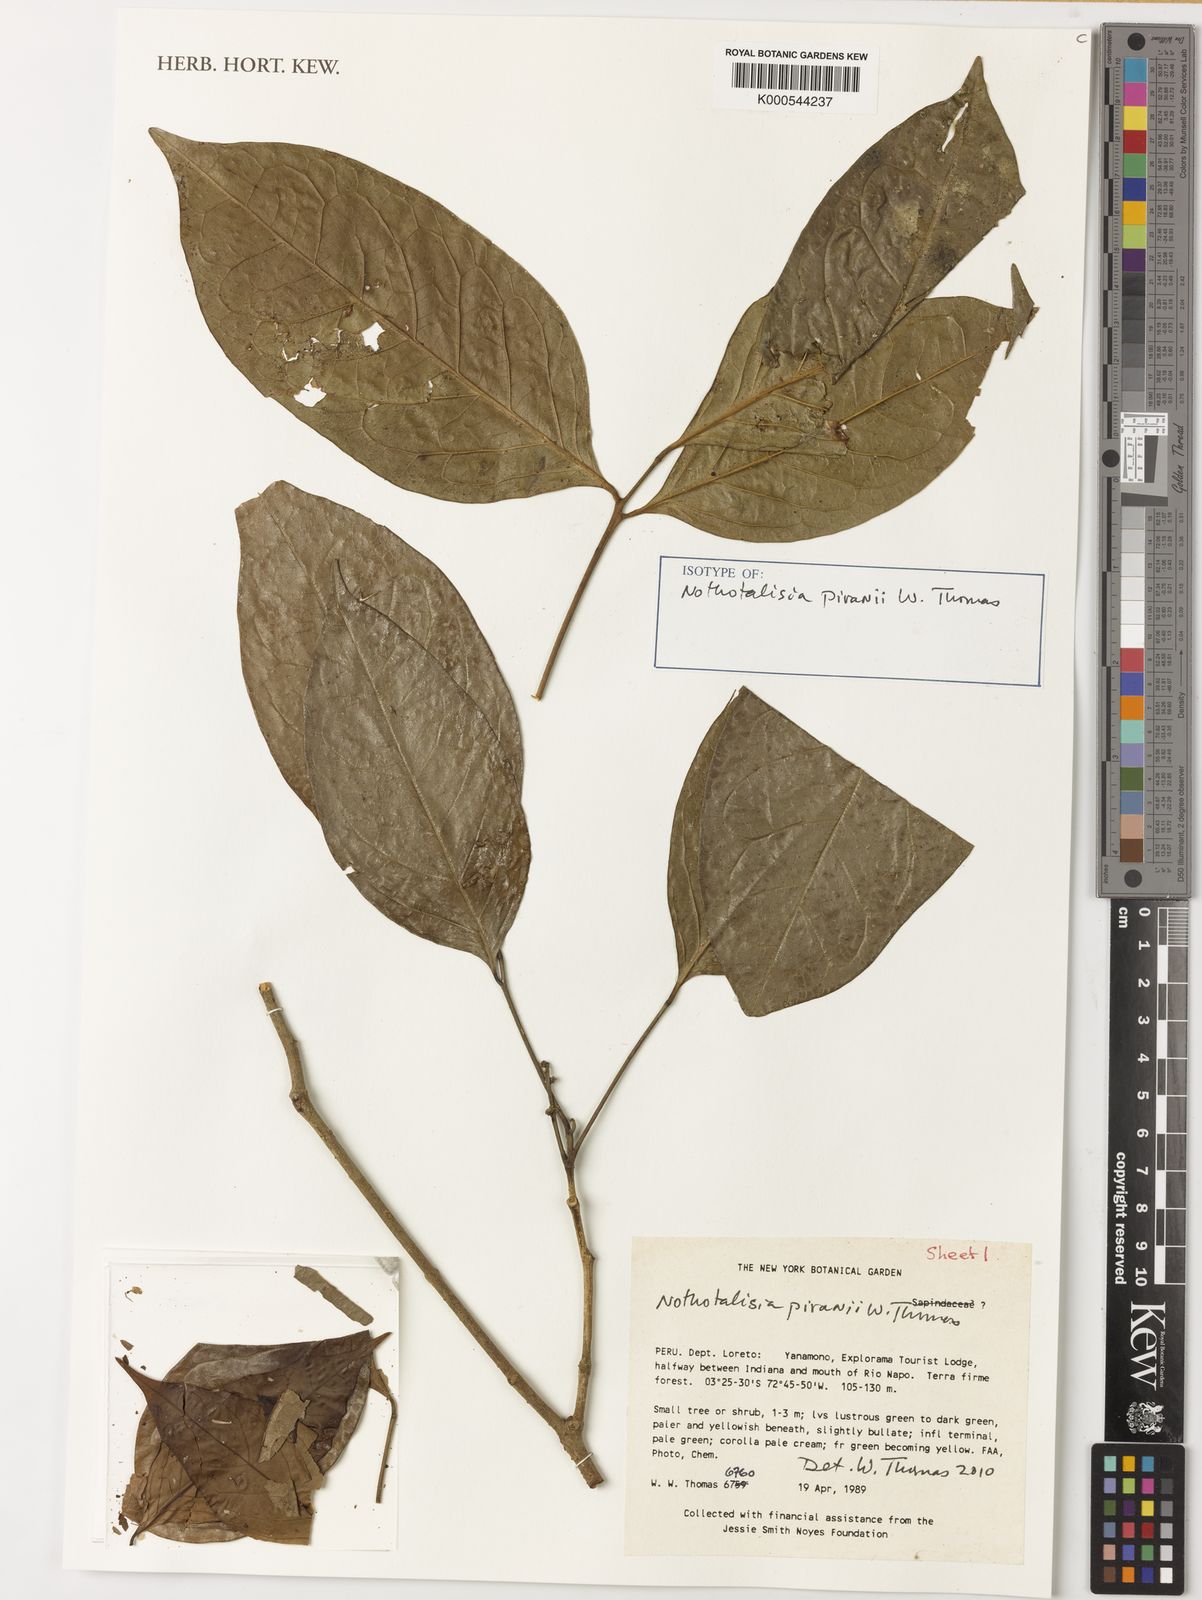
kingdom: Plantae
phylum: Tracheophyta
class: Magnoliopsida
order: Picramniales
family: Picramniaceae
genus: Nothotalisia
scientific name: Nothotalisia piranii
